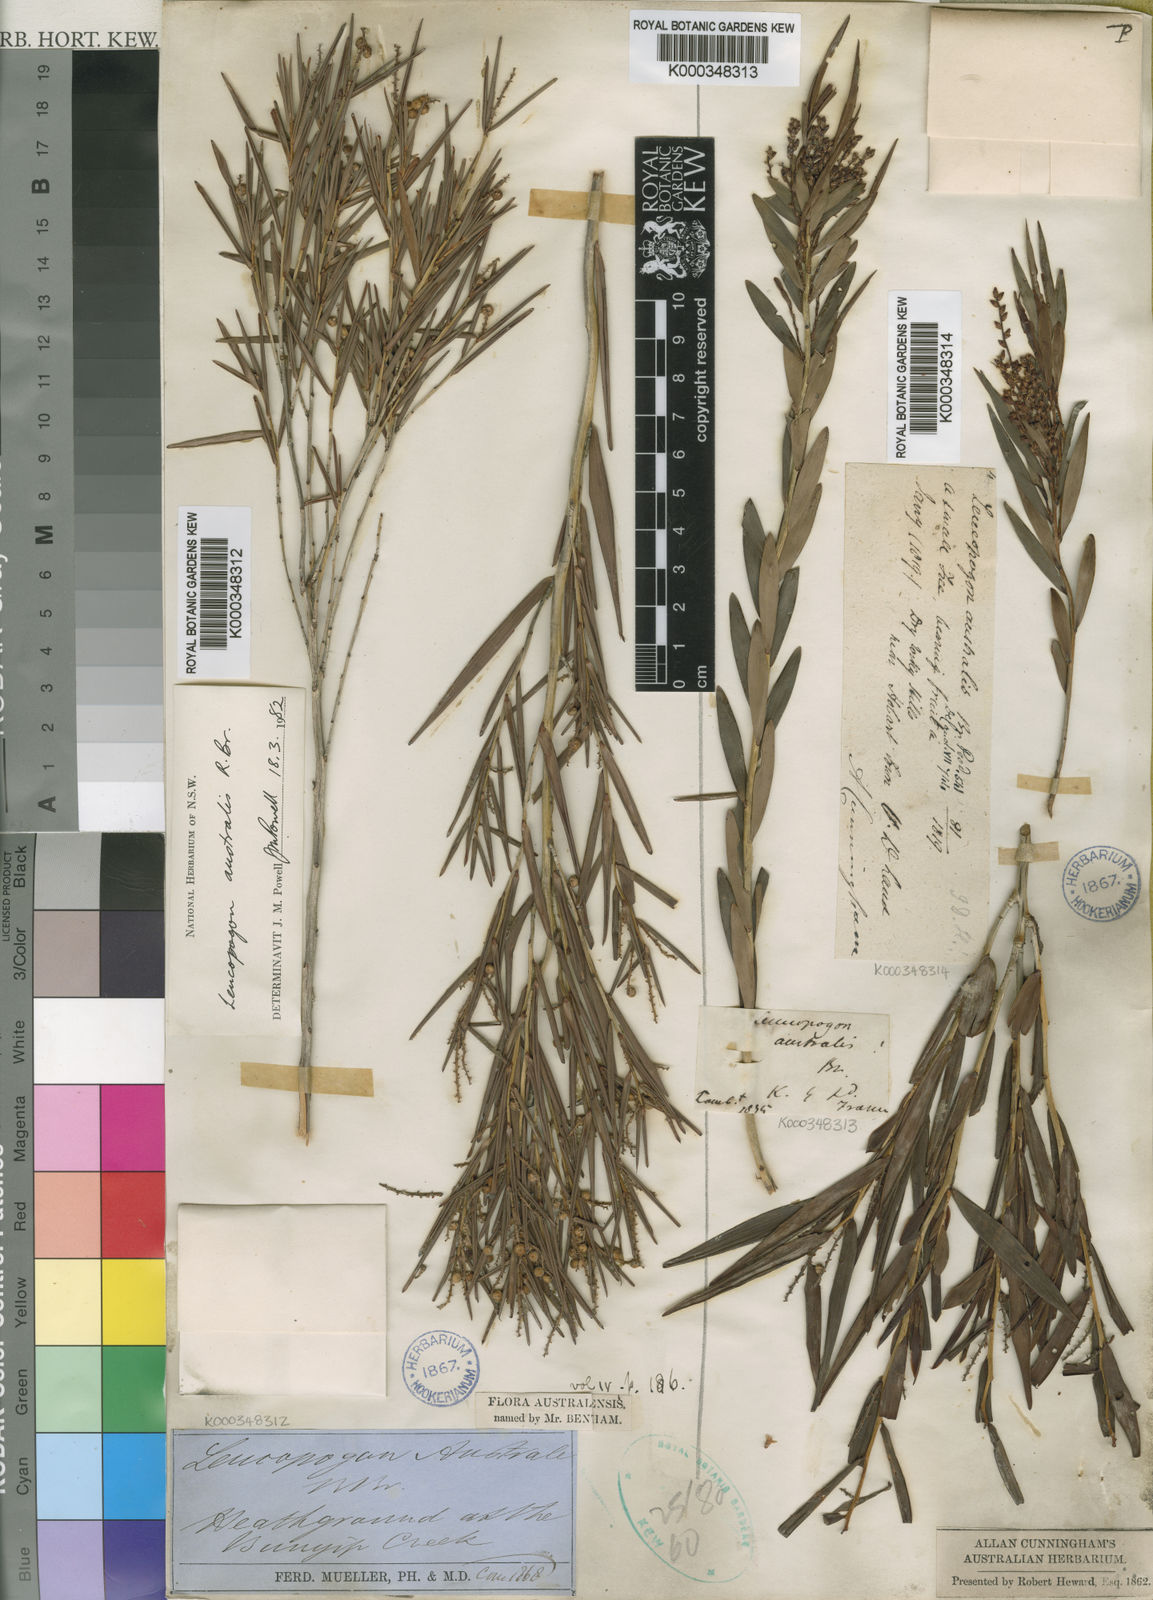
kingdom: Plantae
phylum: Tracheophyta
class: Magnoliopsida
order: Ericales
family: Ericaceae
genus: Leucopogon
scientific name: Leucopogon australis
